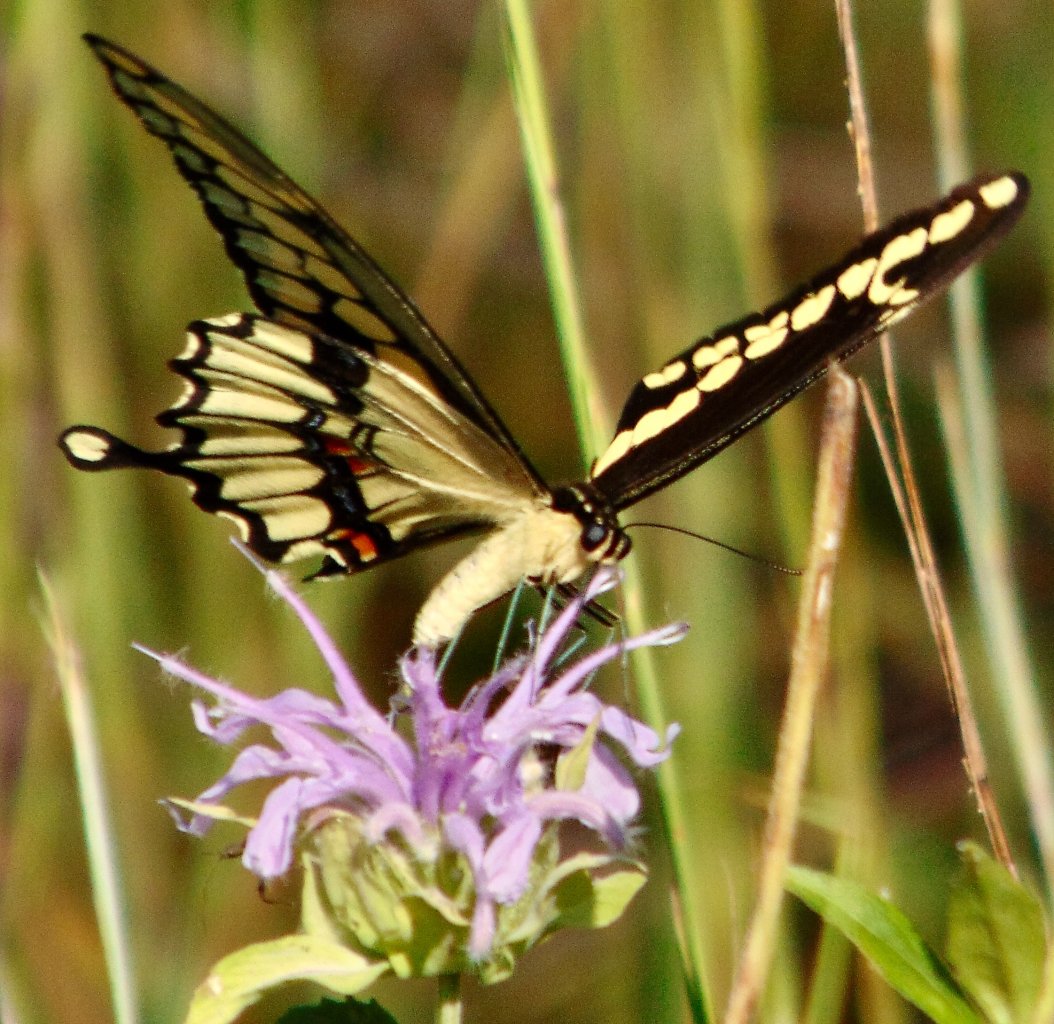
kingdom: Animalia
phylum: Arthropoda
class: Insecta
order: Lepidoptera
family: Papilionidae
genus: Papilio
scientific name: Papilio cresphontes
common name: Eastern Giant Swallowtail
